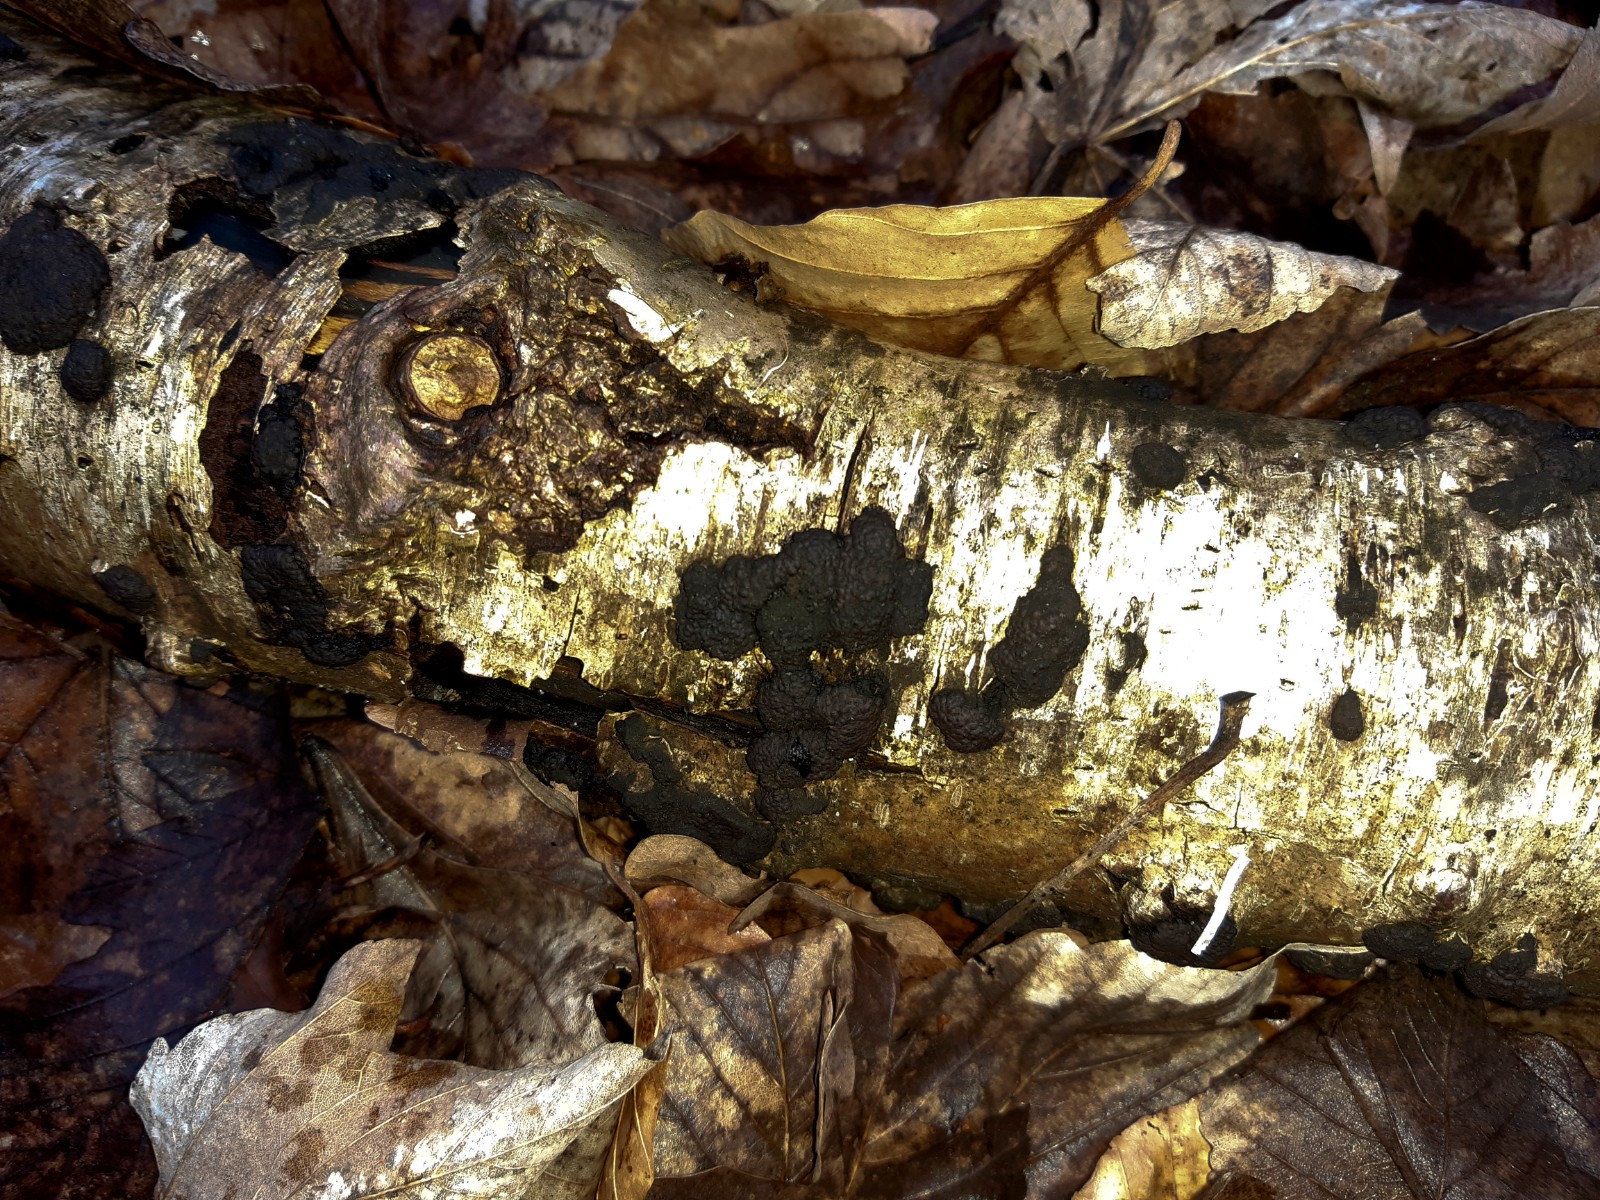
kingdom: Fungi
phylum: Ascomycota
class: Sordariomycetes
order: Xylariales
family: Hypoxylaceae
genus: Jackrogersella
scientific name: Jackrogersella multiformis
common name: foranderlig kulbær
